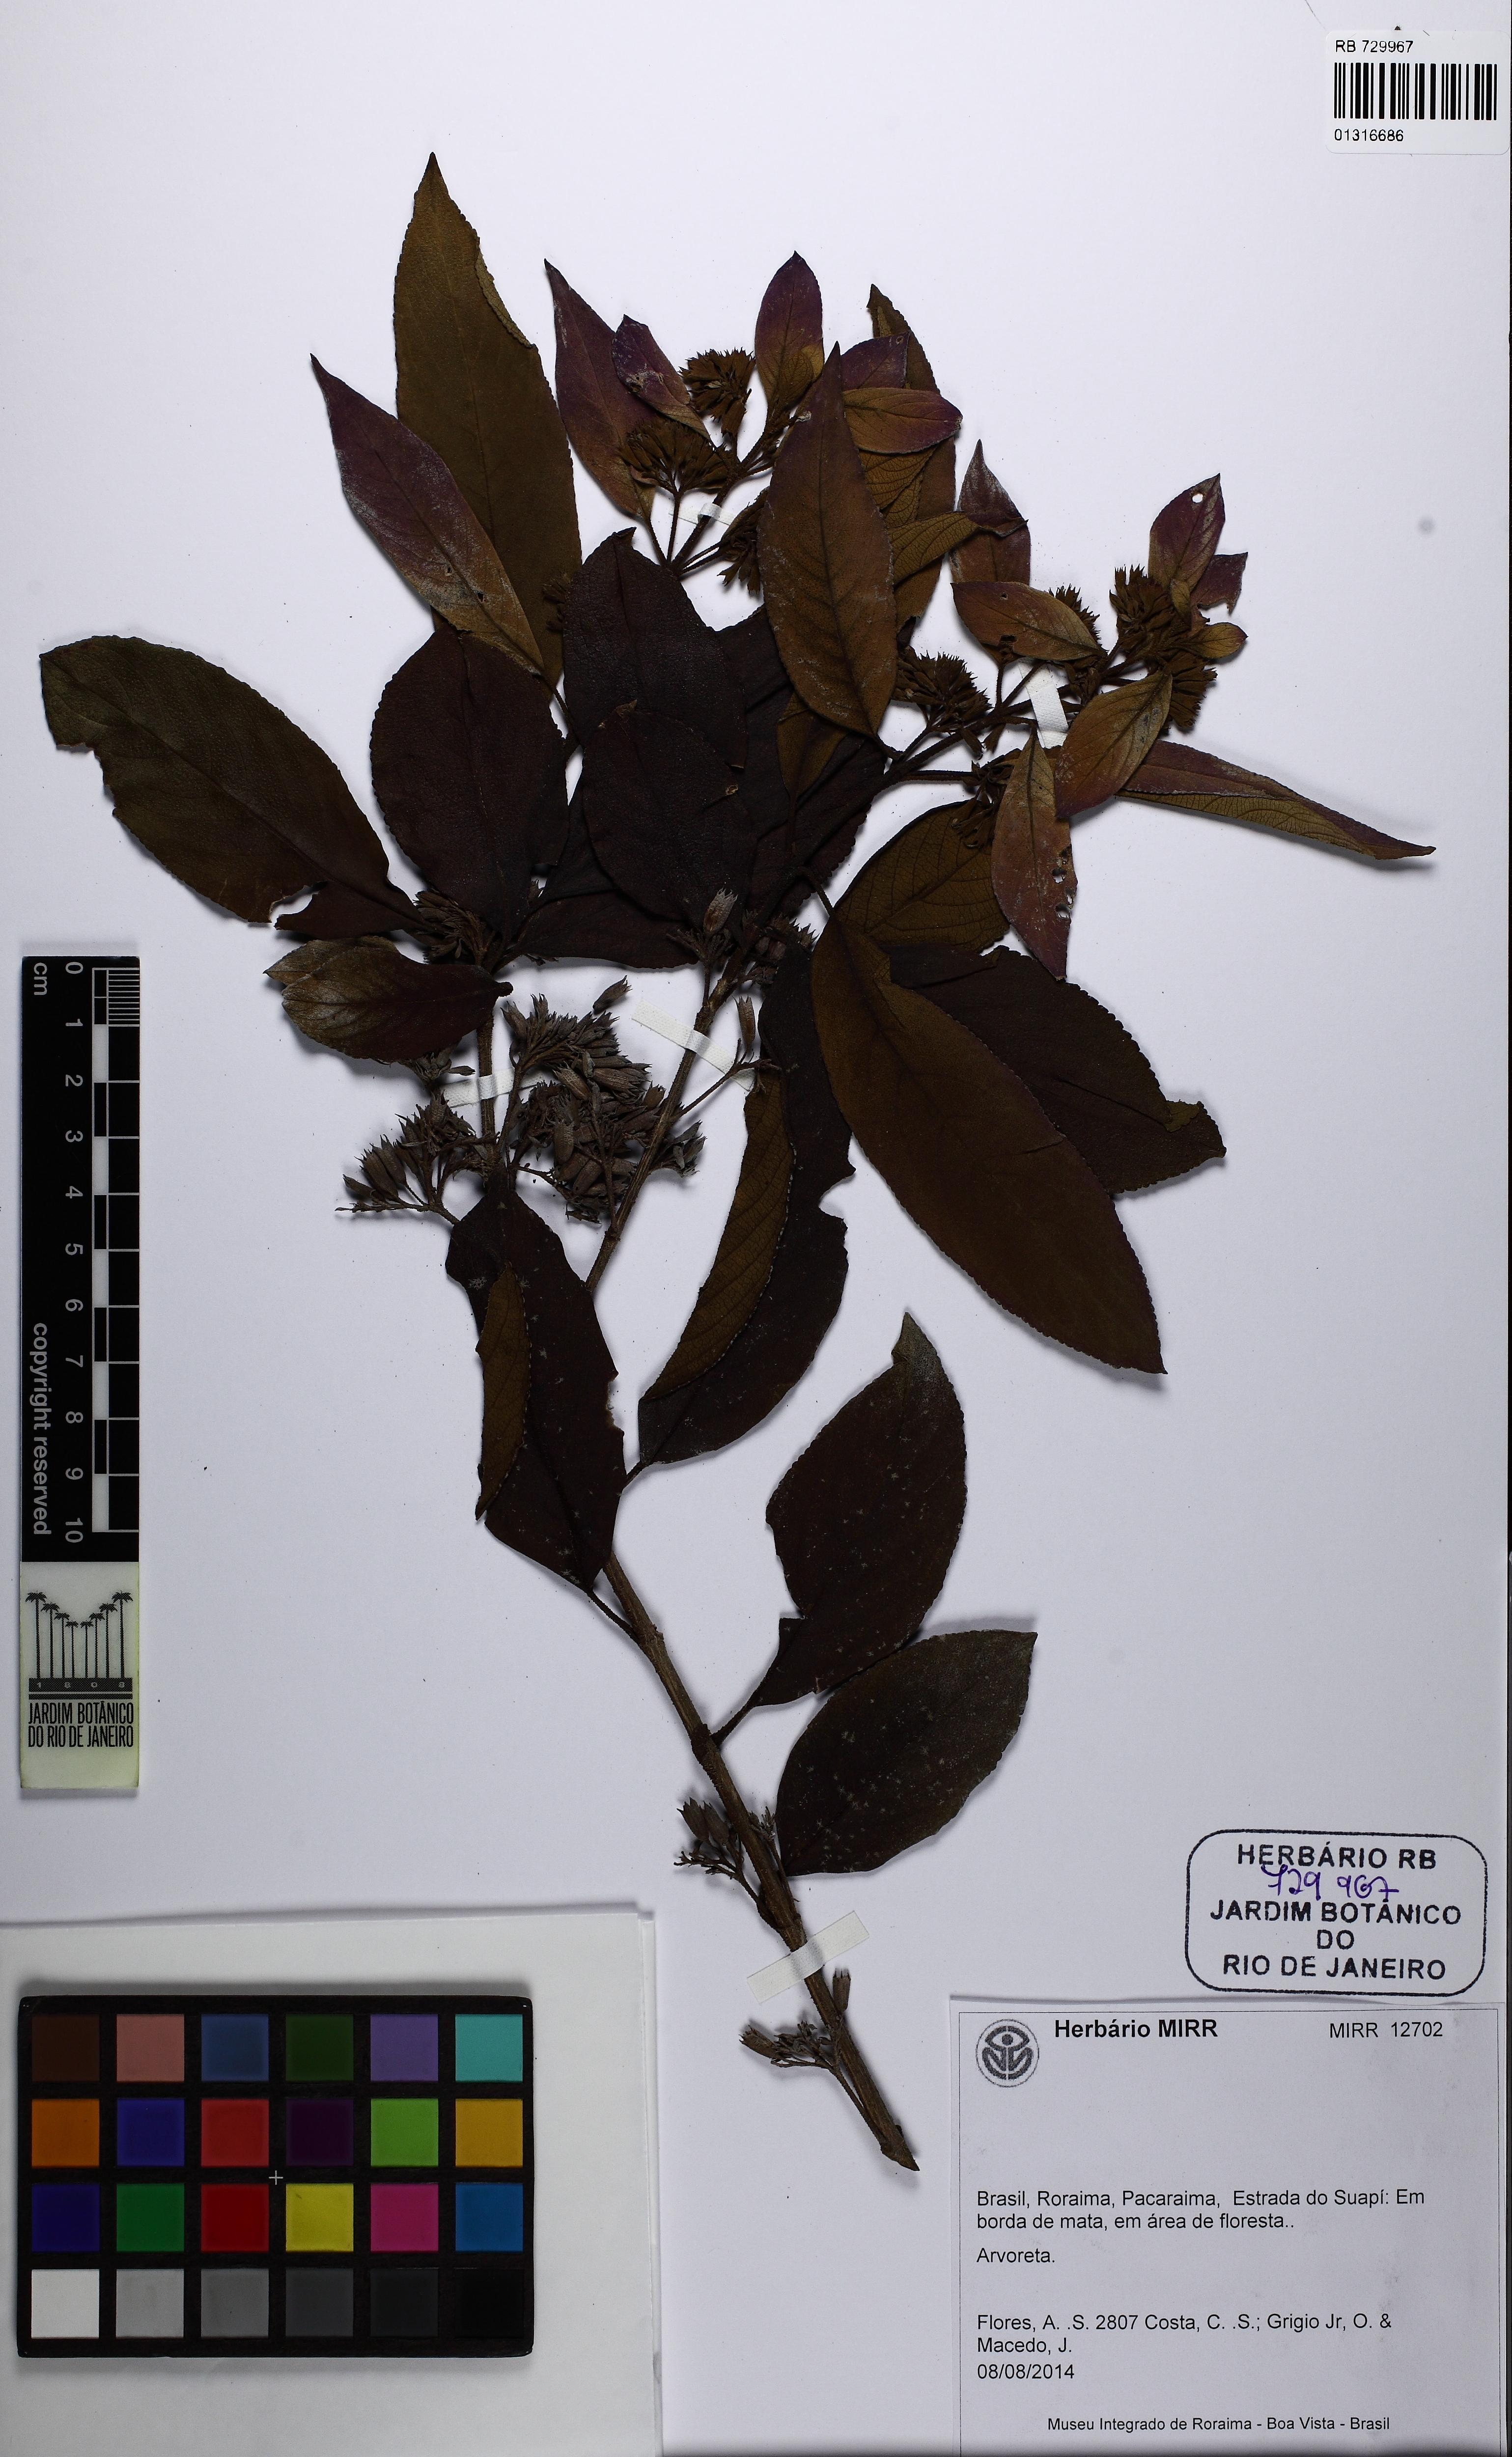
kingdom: Plantae
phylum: Tracheophyta
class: Magnoliopsida
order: Lamiales
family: Lamiaceae
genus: Hyptidendron
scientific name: Hyptidendron arboreum
